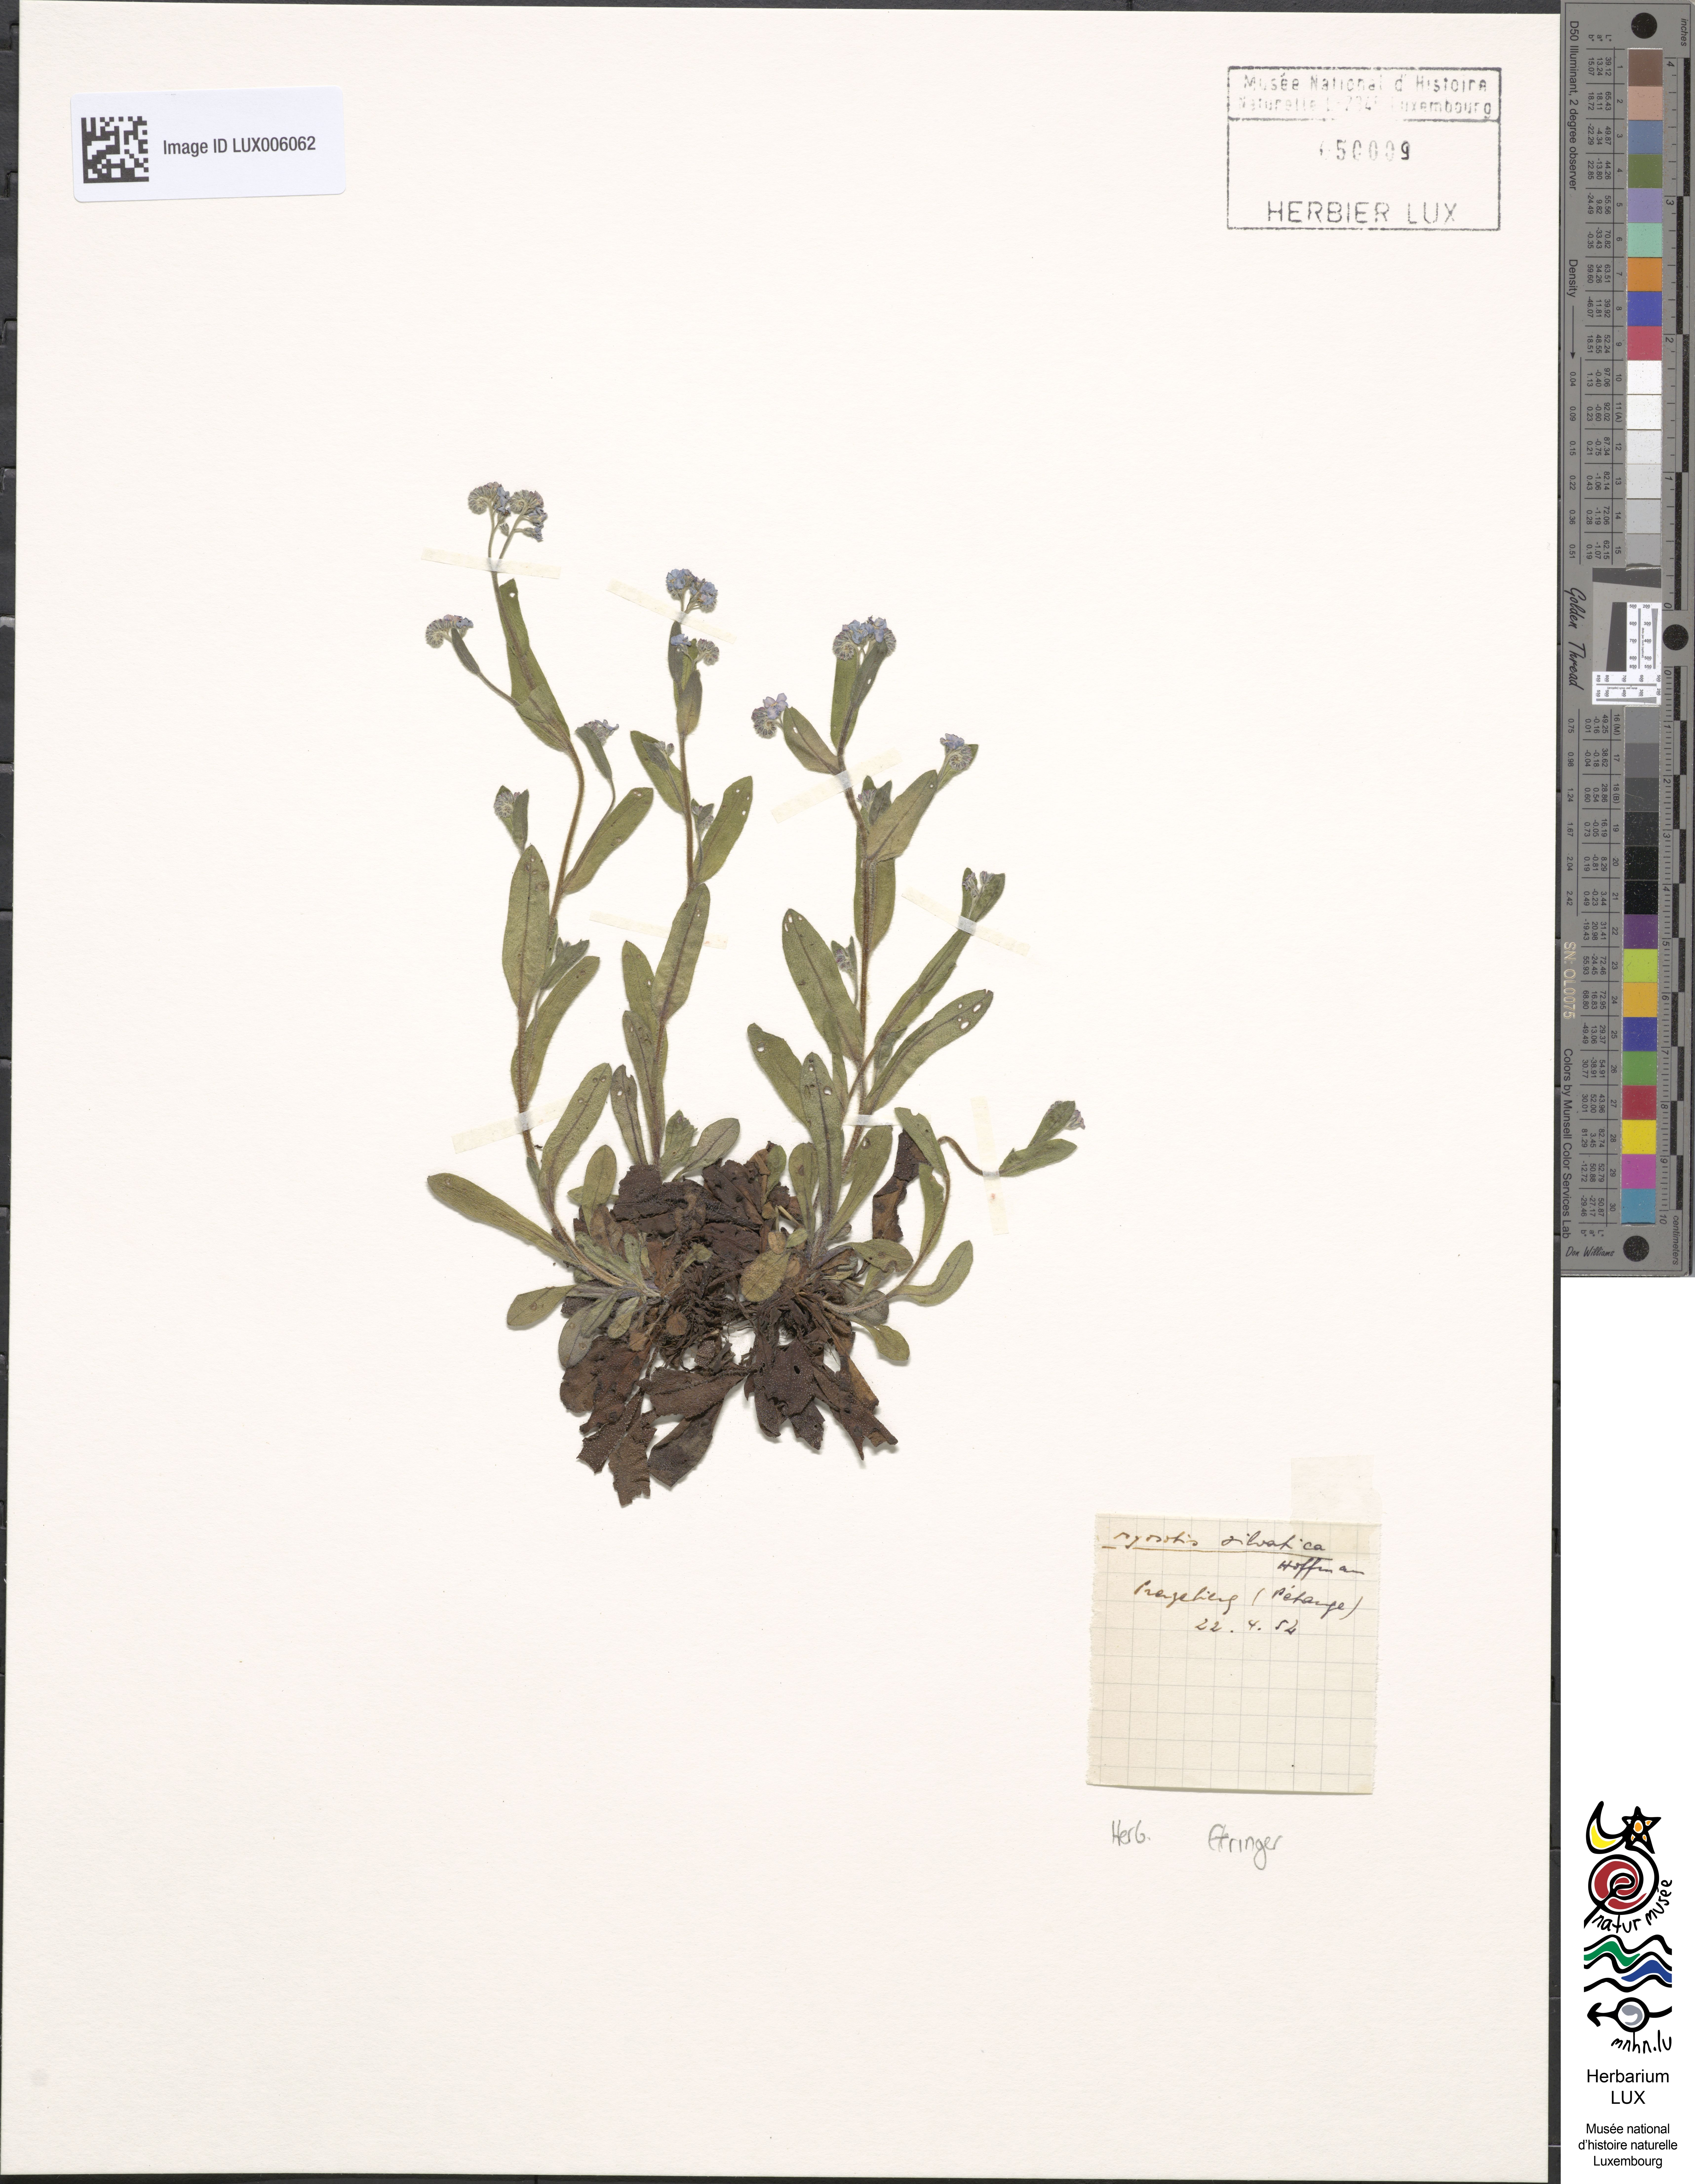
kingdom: Plantae
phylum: Tracheophyta
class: Magnoliopsida
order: Boraginales
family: Boraginaceae
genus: Myosotis
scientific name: Myosotis sylvatica
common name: Wood forget-me-not
